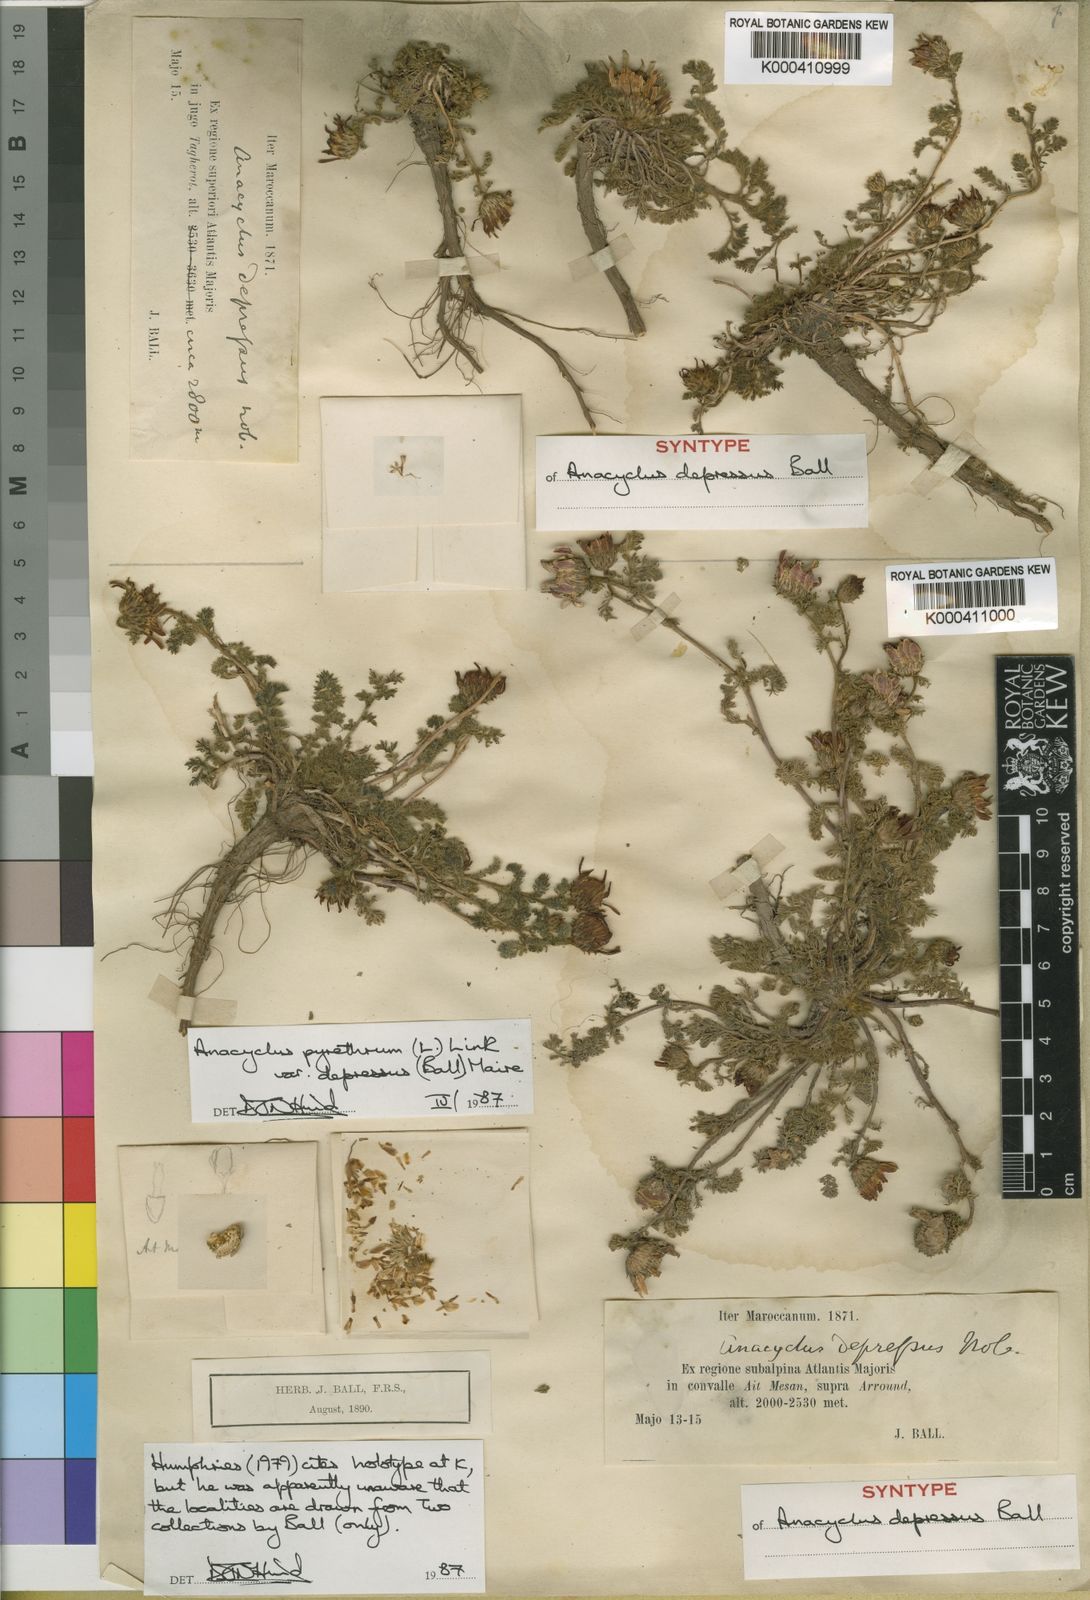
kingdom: Plantae
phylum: Tracheophyta
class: Magnoliopsida
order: Asterales
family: Asteraceae
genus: Anacyclus
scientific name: Anacyclus pyrethrum
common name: Mt. atlas daisy
